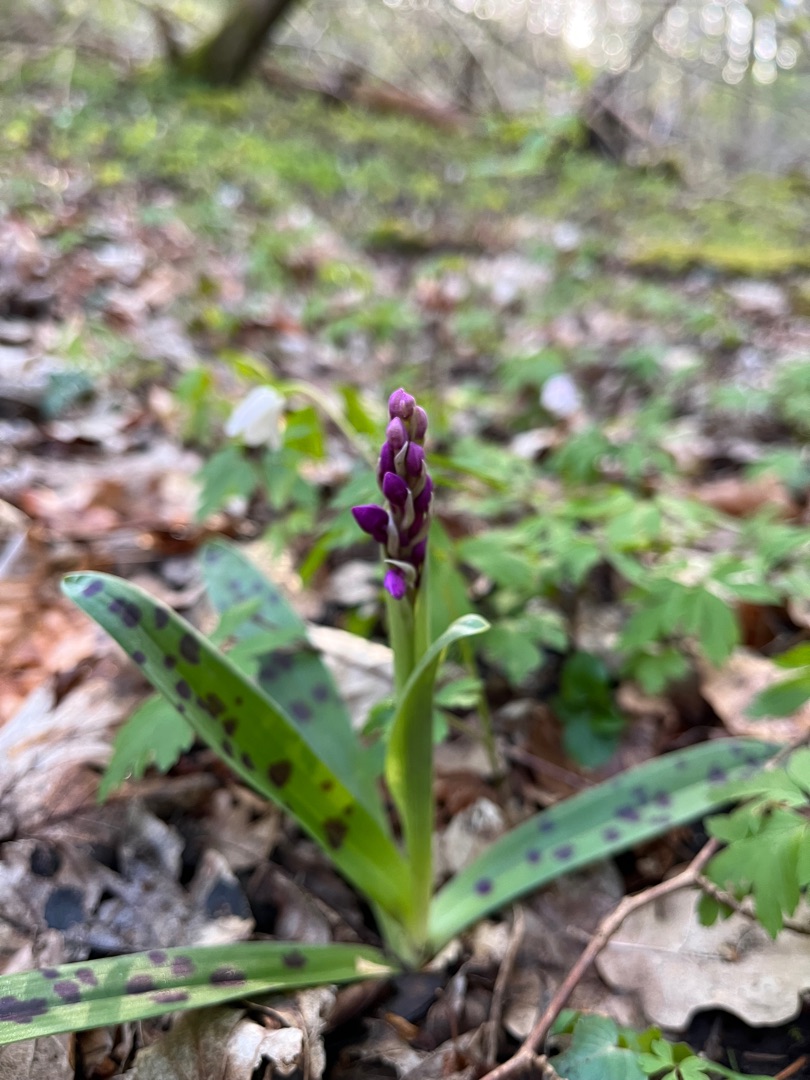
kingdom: Plantae
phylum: Tracheophyta
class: Liliopsida
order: Asparagales
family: Orchidaceae
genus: Orchis
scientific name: Orchis mascula
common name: Tyndakset gøgeurt
